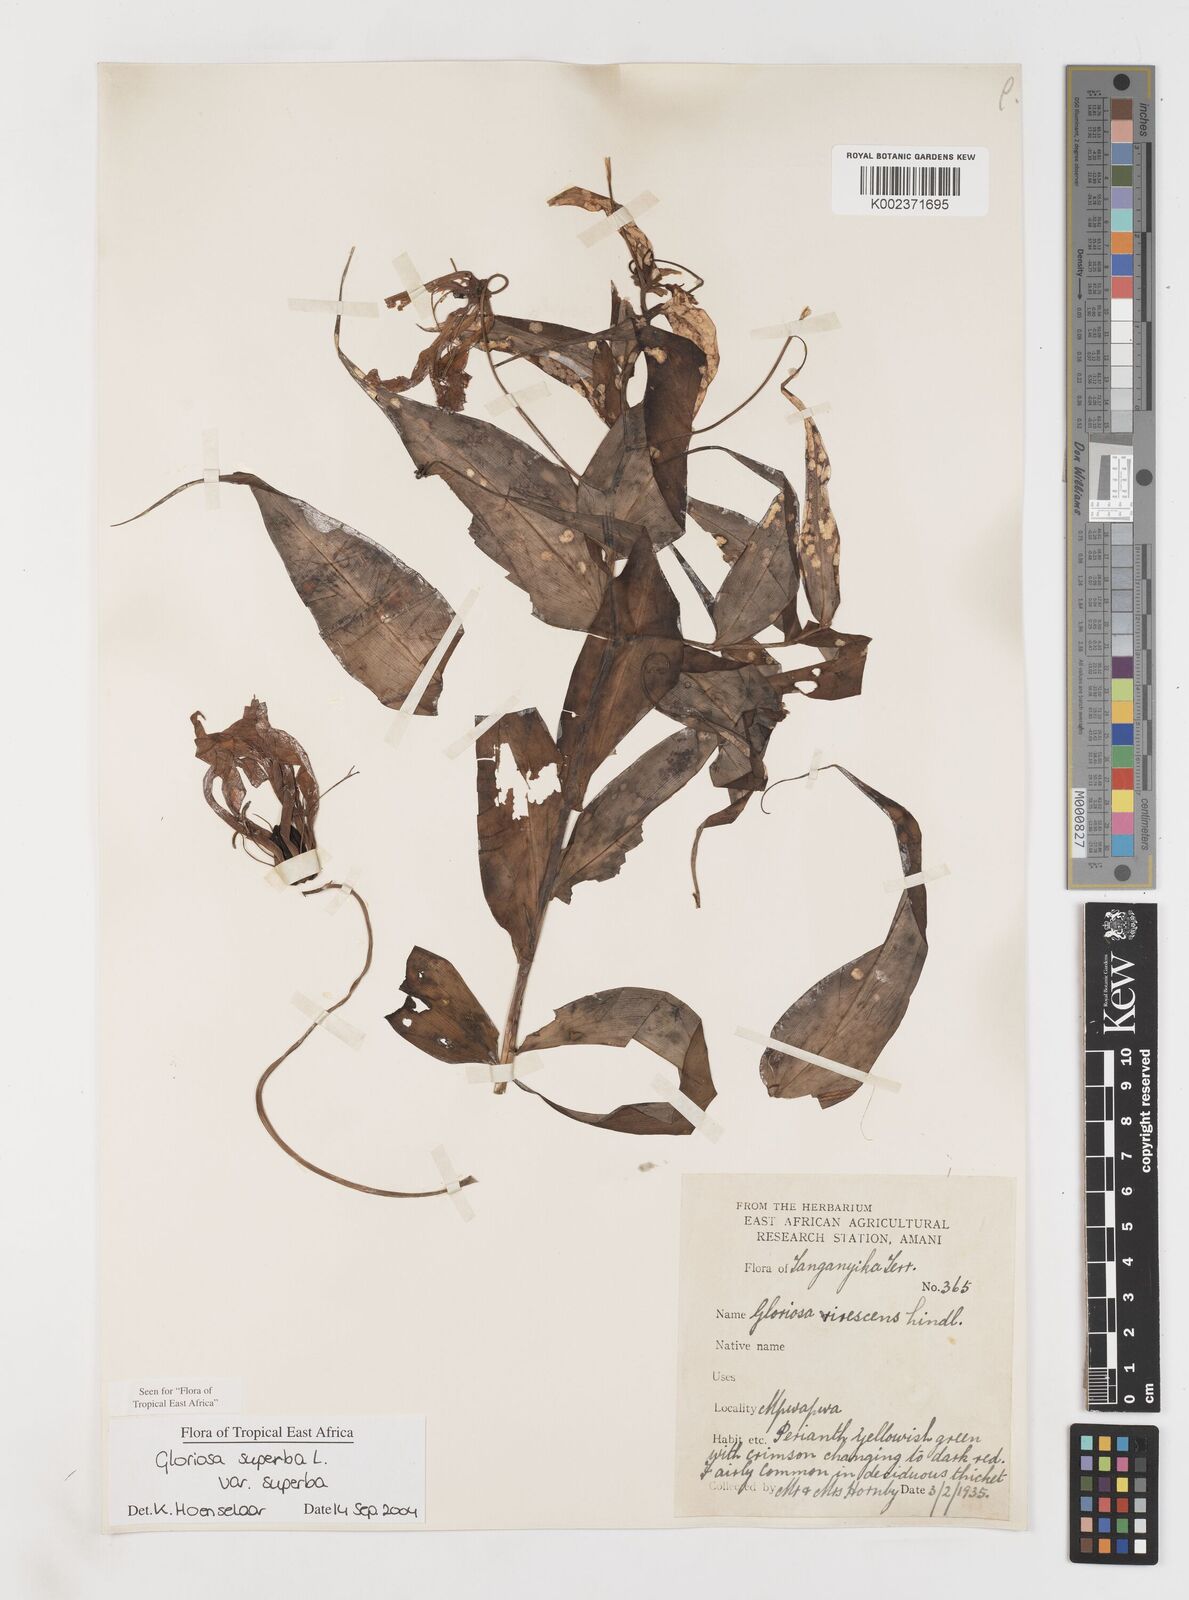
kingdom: Plantae
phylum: Tracheophyta
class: Liliopsida
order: Liliales
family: Colchicaceae
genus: Gloriosa
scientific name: Gloriosa simplex
